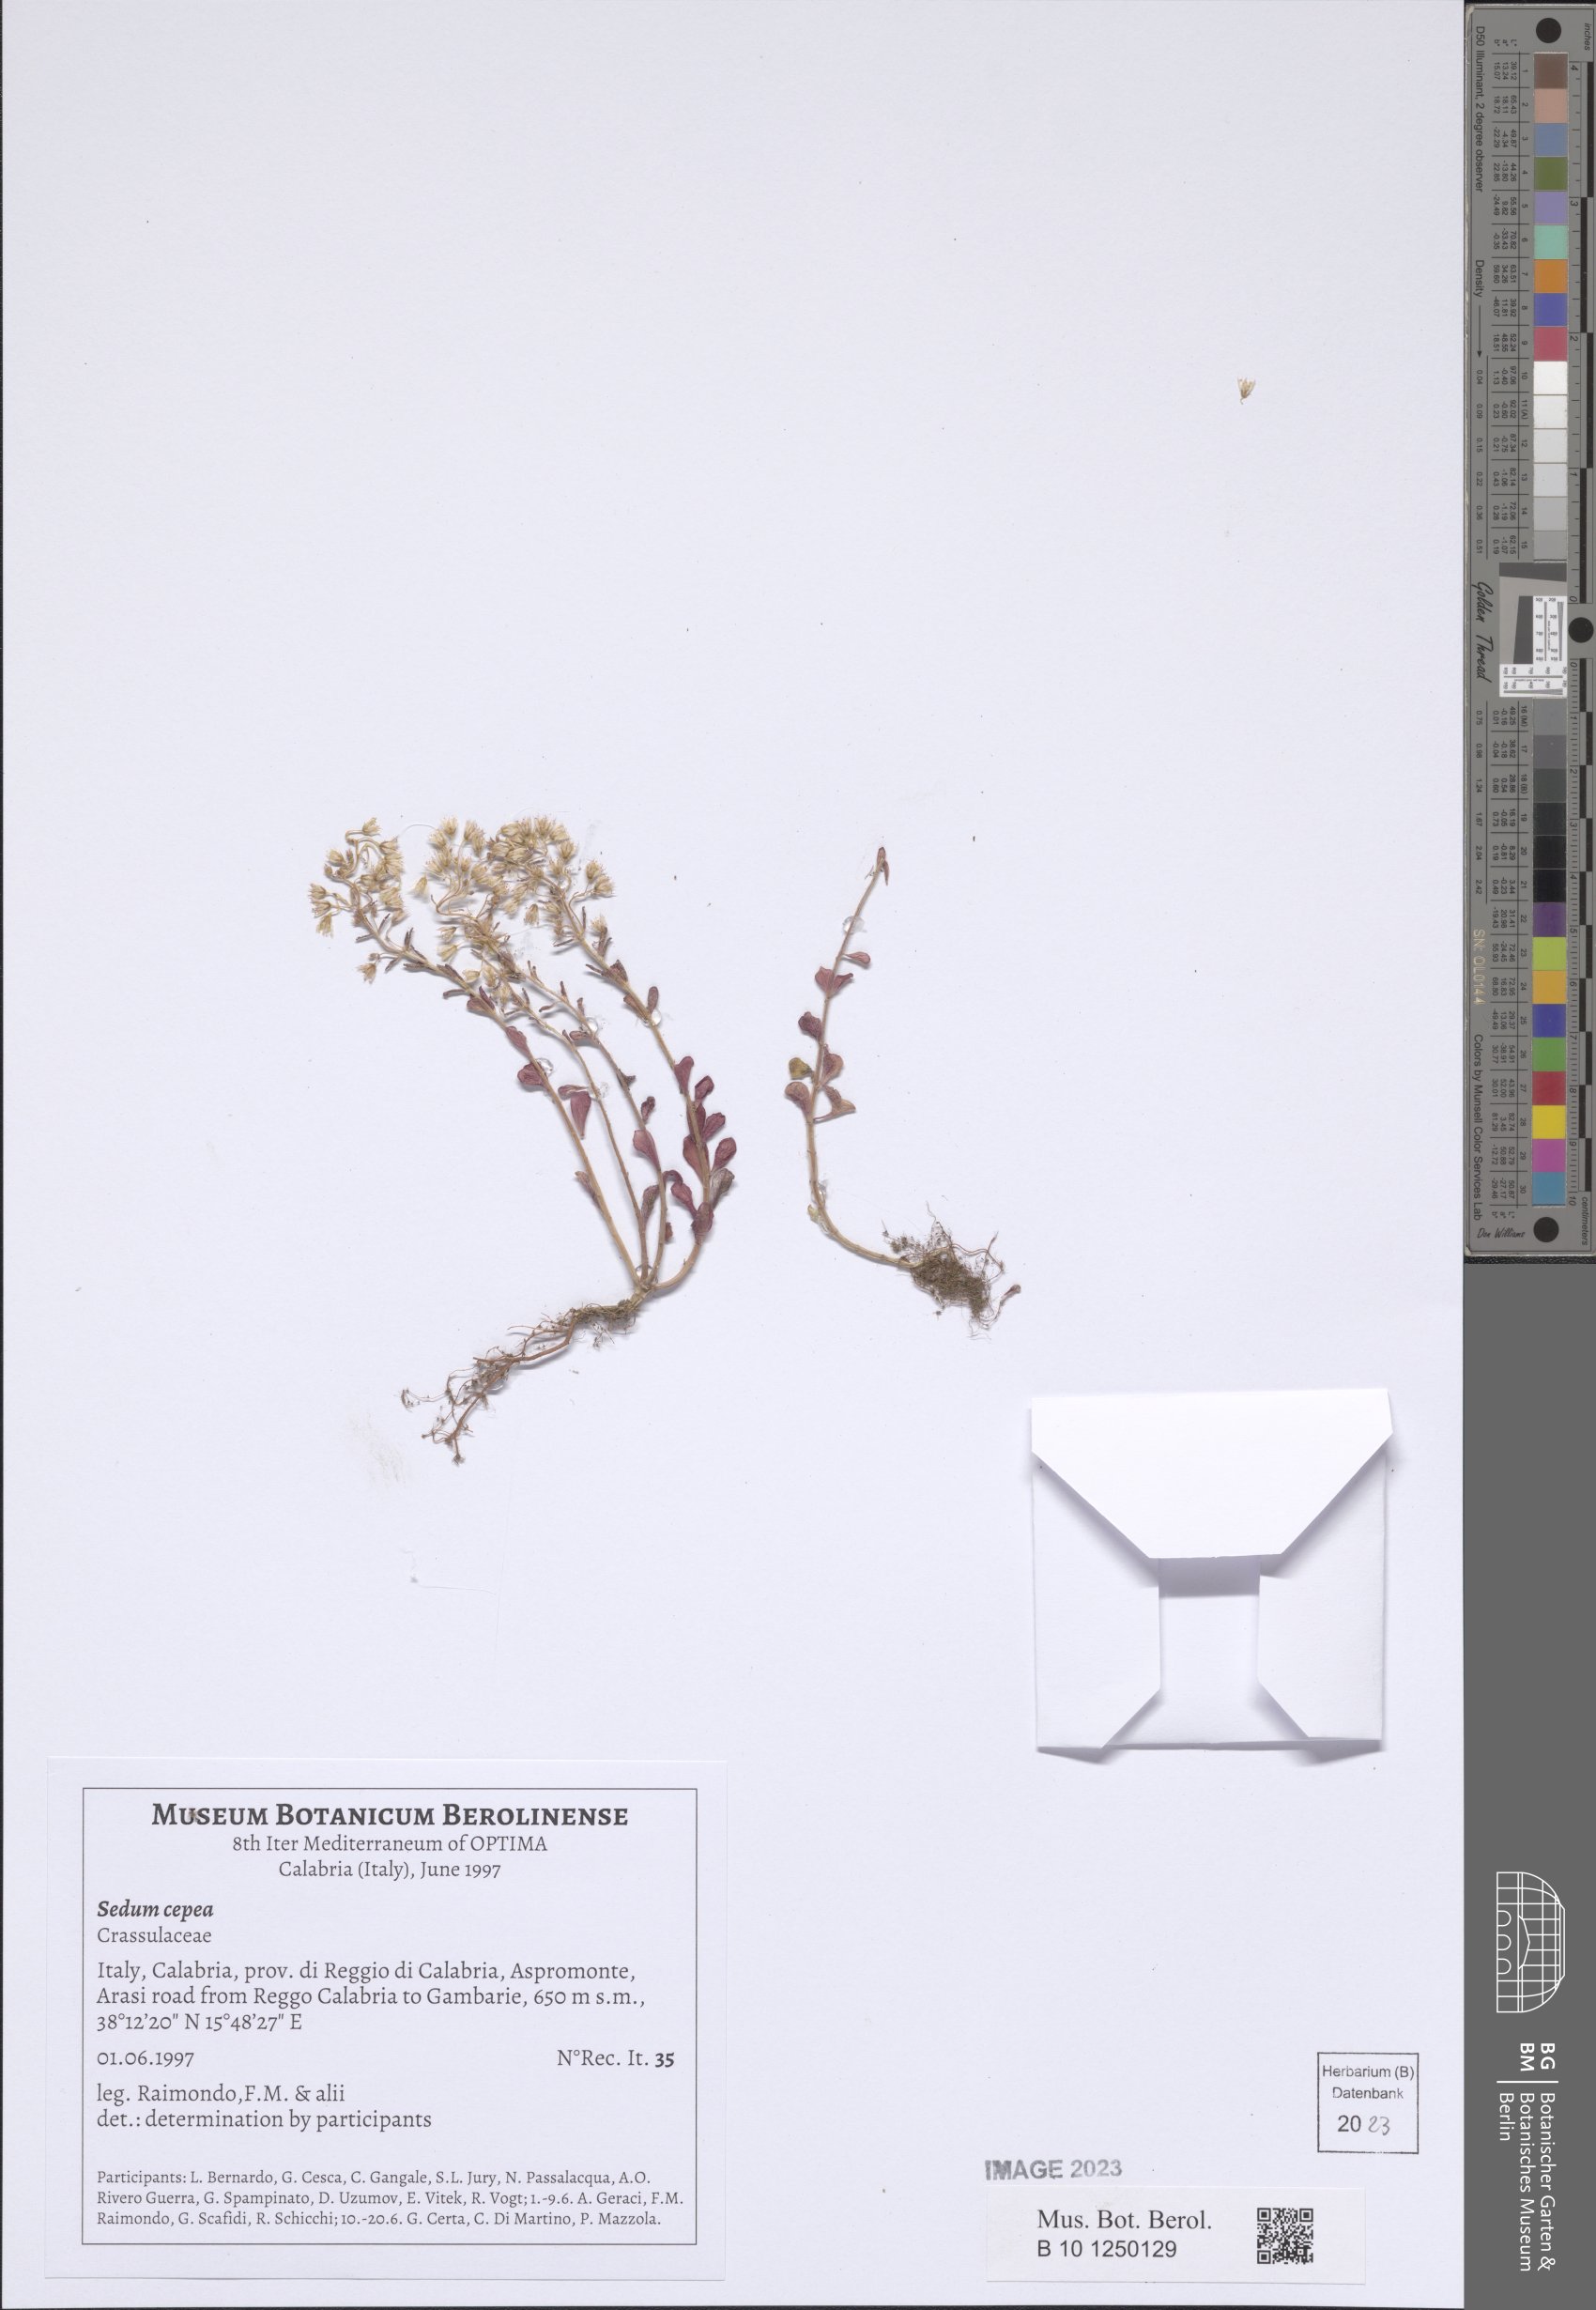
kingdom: Plantae
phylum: Tracheophyta
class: Magnoliopsida
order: Saxifragales
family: Crassulaceae
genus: Sedum
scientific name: Sedum cepaea
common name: Pink stonecrop
